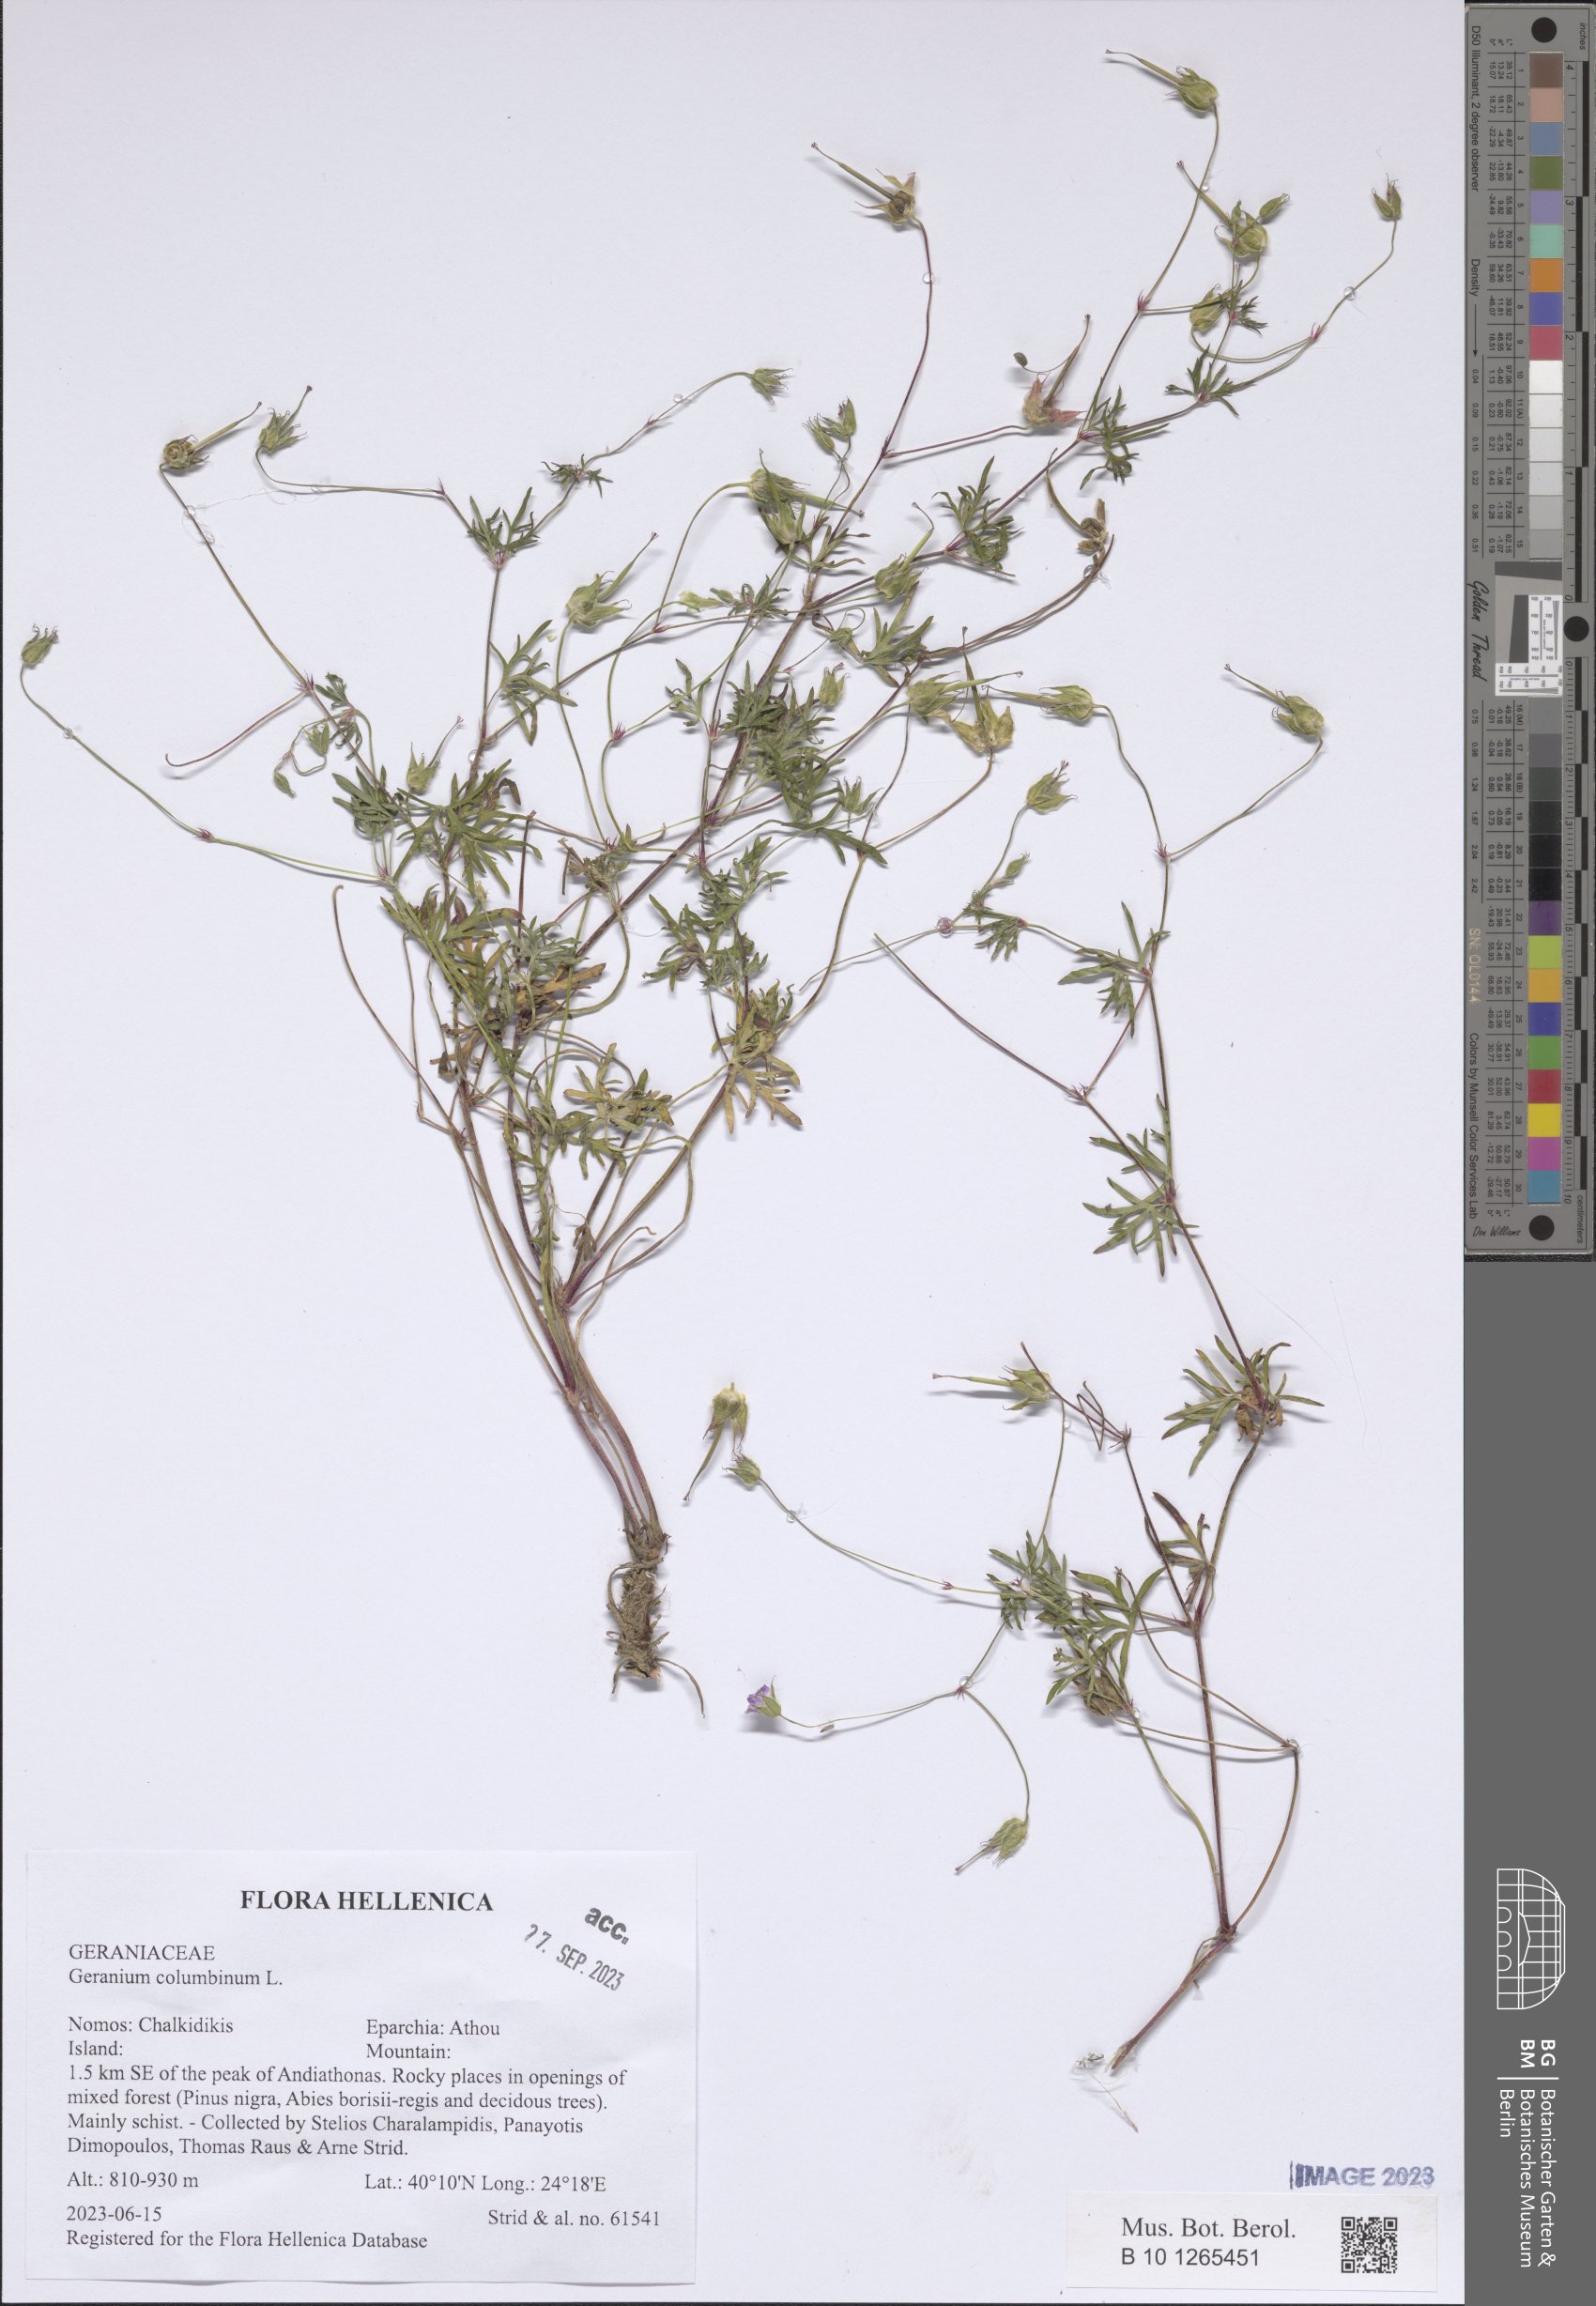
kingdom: Plantae
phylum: Tracheophyta
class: Magnoliopsida
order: Geraniales
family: Geraniaceae
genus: Geranium
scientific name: Geranium columbinum
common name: Long-stalked crane's-bill
